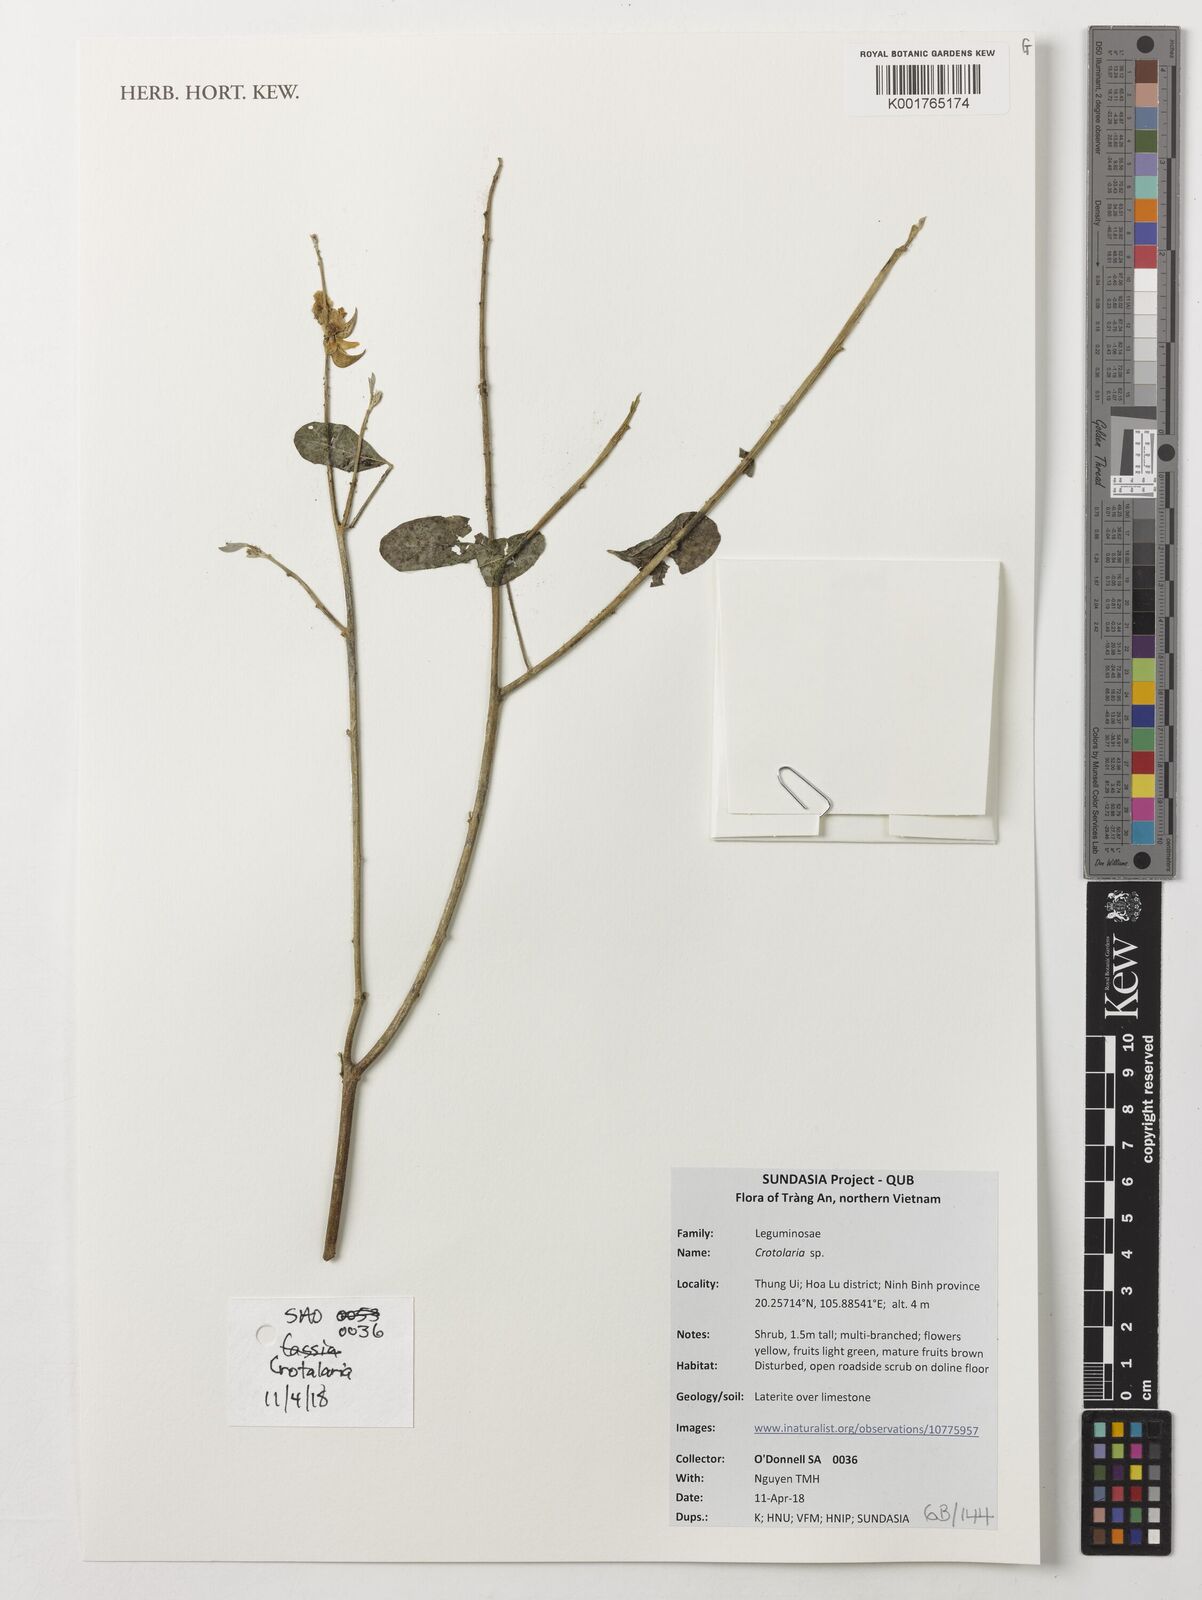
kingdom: Plantae
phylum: Tracheophyta
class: Magnoliopsida
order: Fabales
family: Fabaceae
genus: Crotalaria
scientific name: Crotalaria
